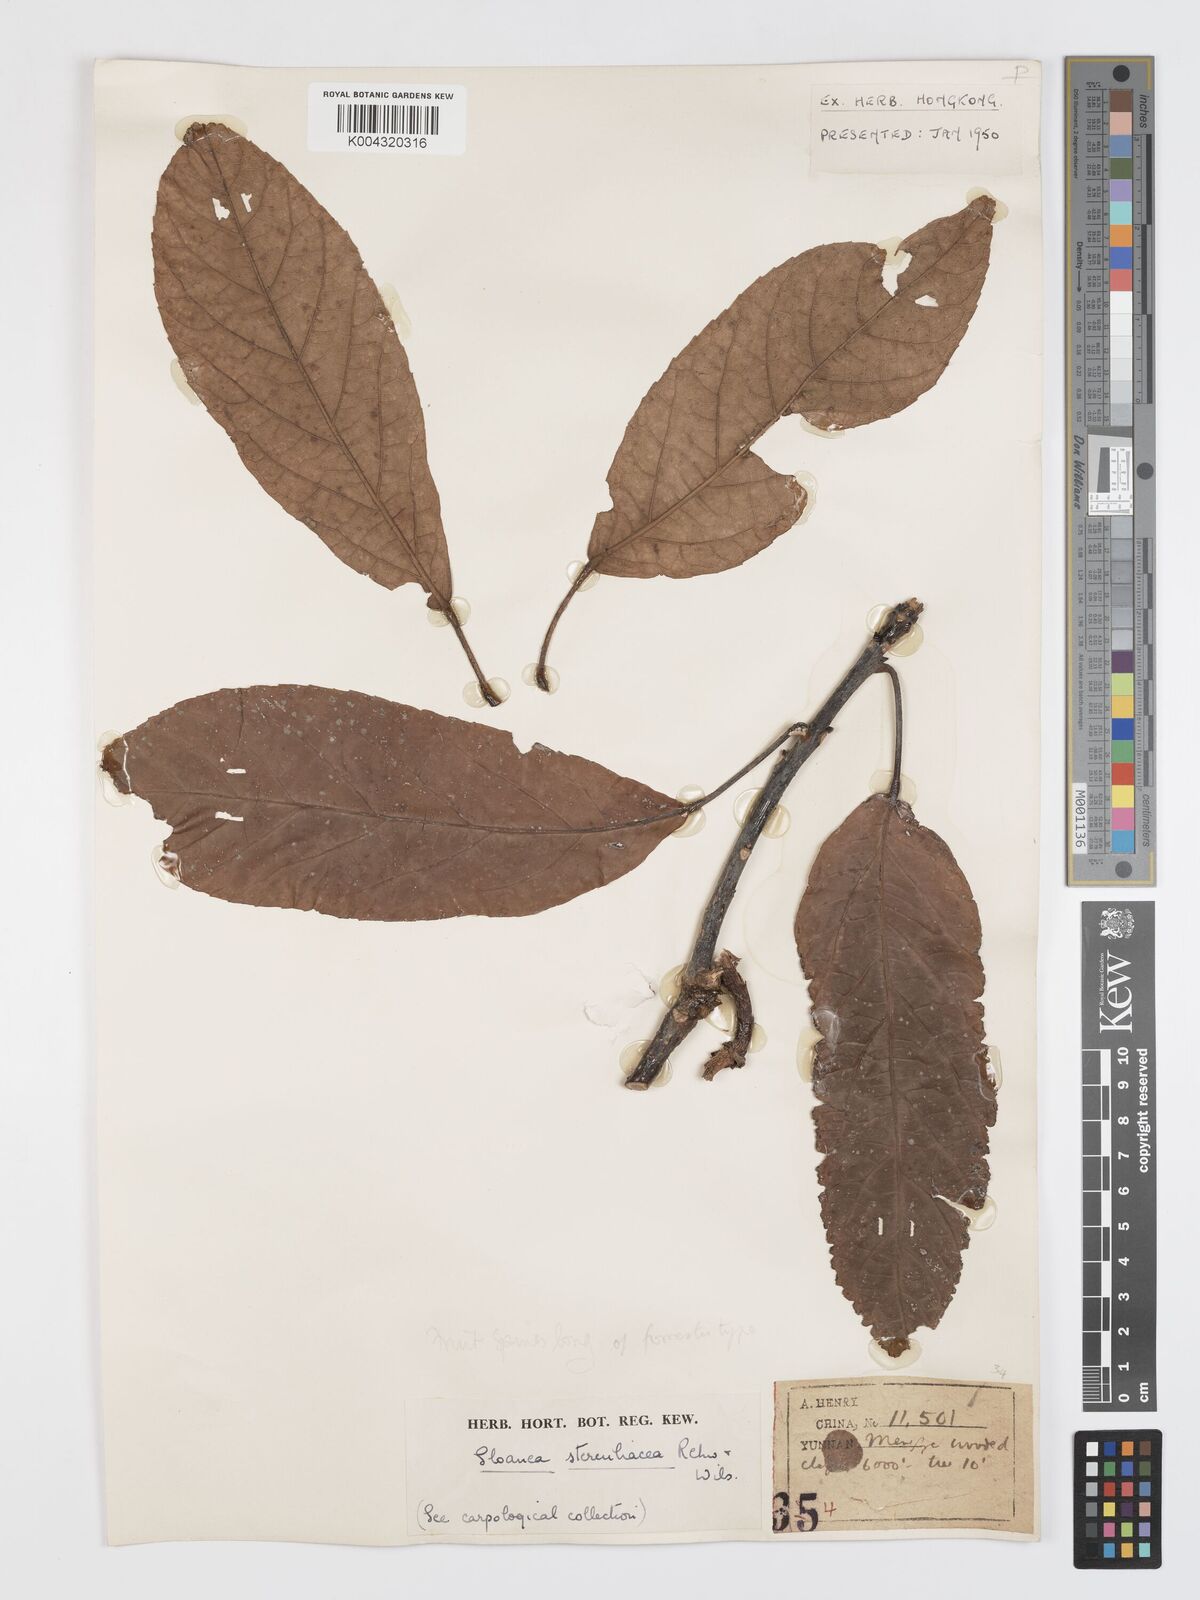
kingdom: Plantae
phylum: Tracheophyta
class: Magnoliopsida
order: Oxalidales
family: Elaeocarpaceae
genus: Sloanea
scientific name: Sloanea sterculiacea
